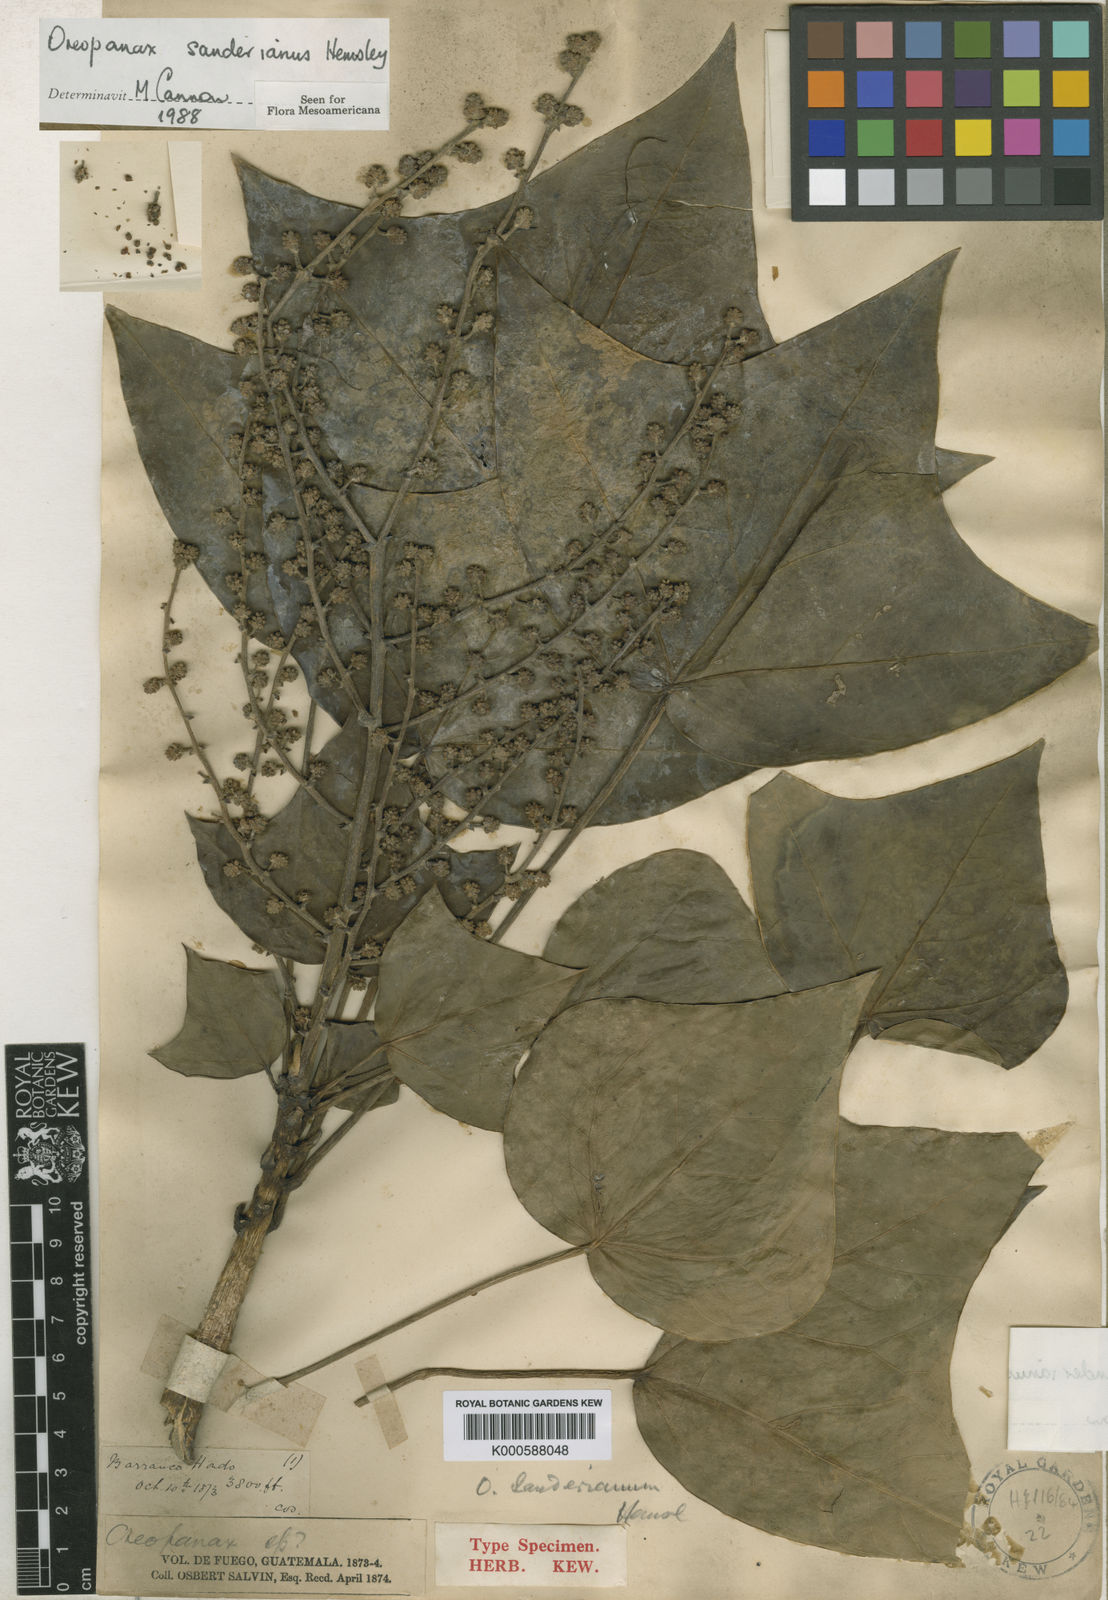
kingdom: Plantae
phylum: Tracheophyta
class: Magnoliopsida
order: Apiales
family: Araliaceae
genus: Oreopanax
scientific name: Oreopanax sanderianus
